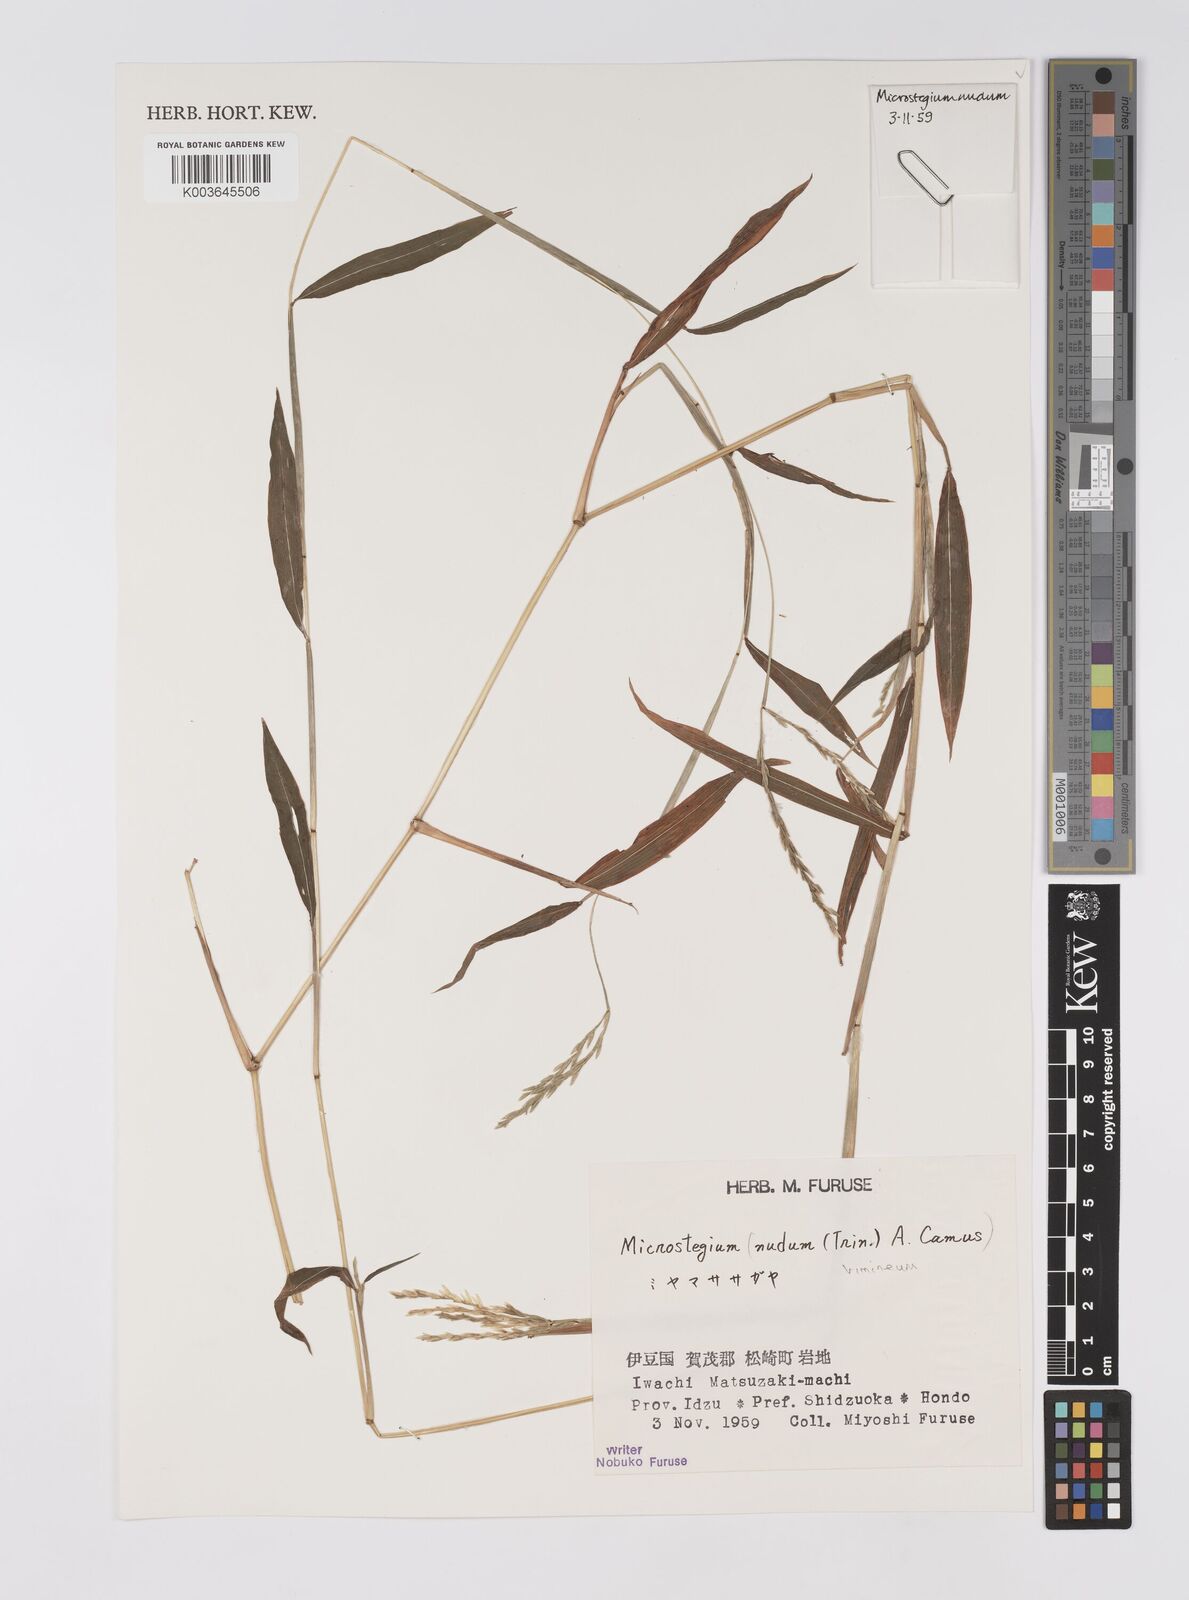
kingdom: Plantae
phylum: Tracheophyta
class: Liliopsida
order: Poales
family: Poaceae
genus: Microstegium
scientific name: Microstegium vimineum
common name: Japanese stiltgrass
